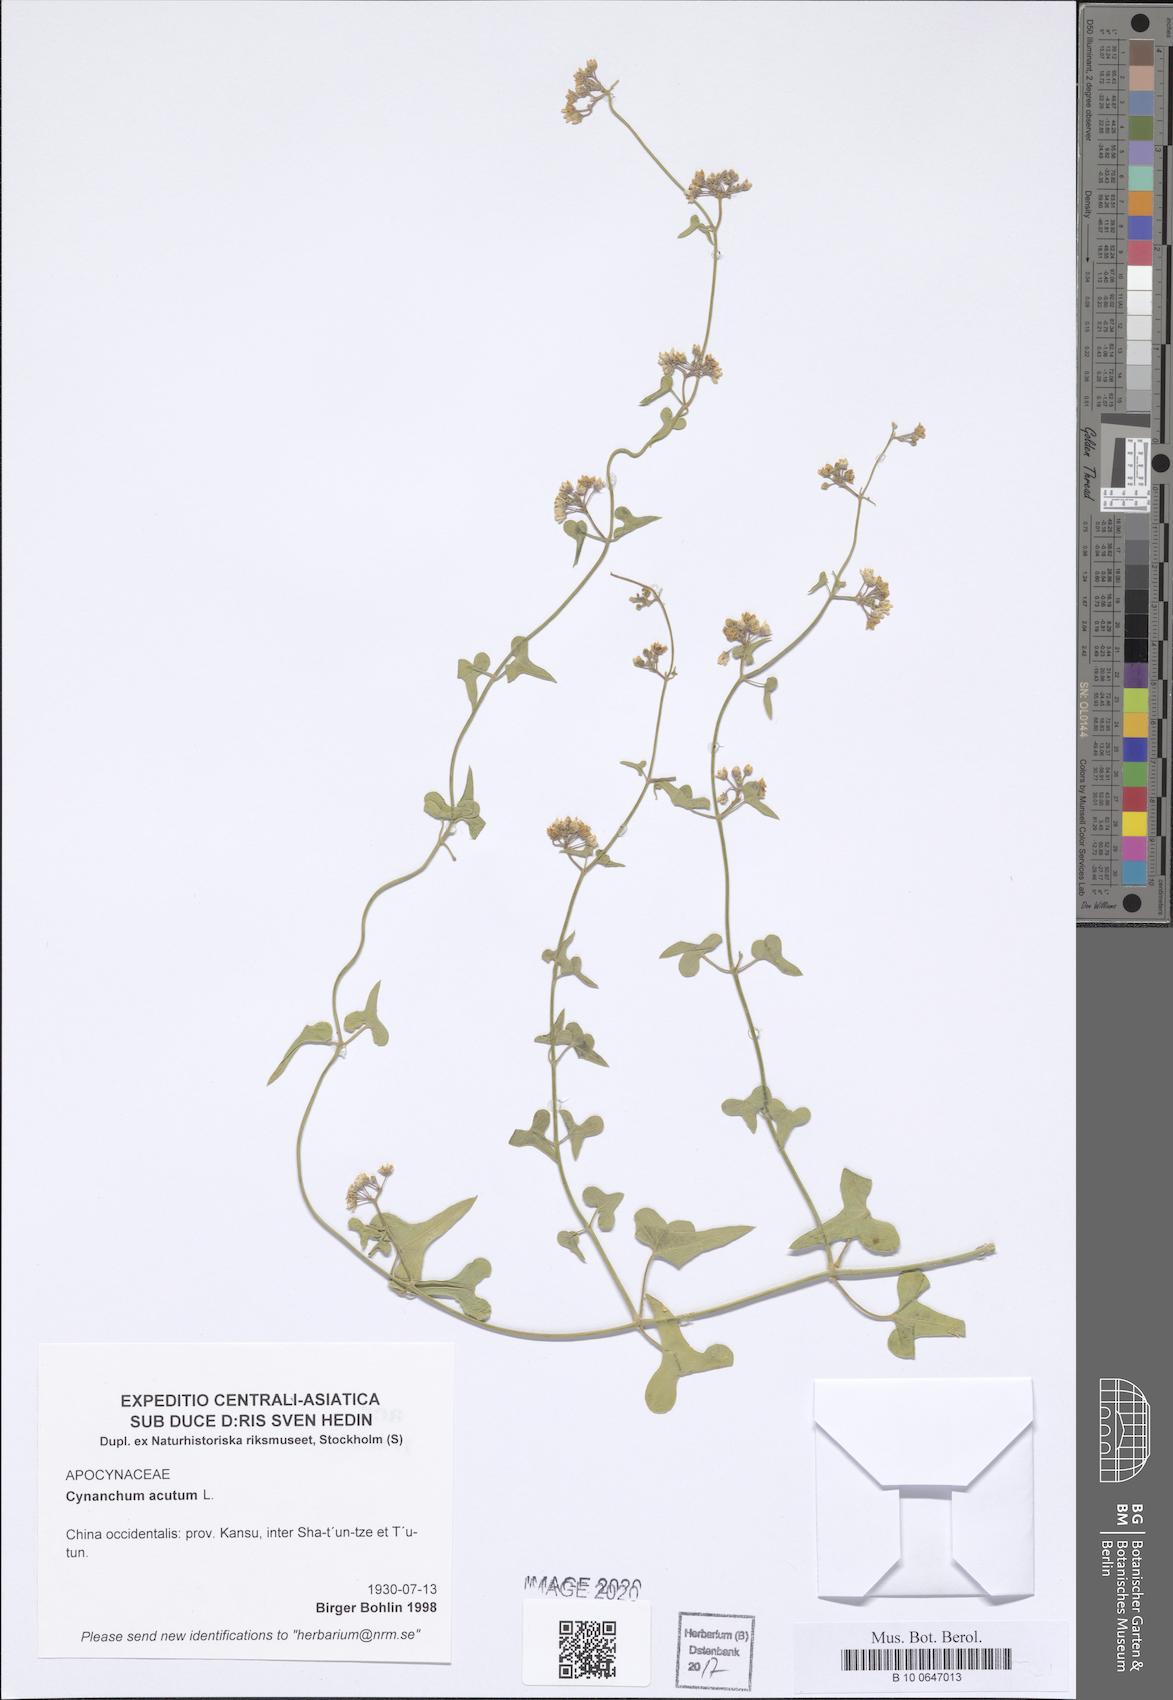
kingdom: Plantae
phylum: Tracheophyta
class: Magnoliopsida
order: Gentianales
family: Apocynaceae
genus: Cynanchum
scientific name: Cynanchum acutum
